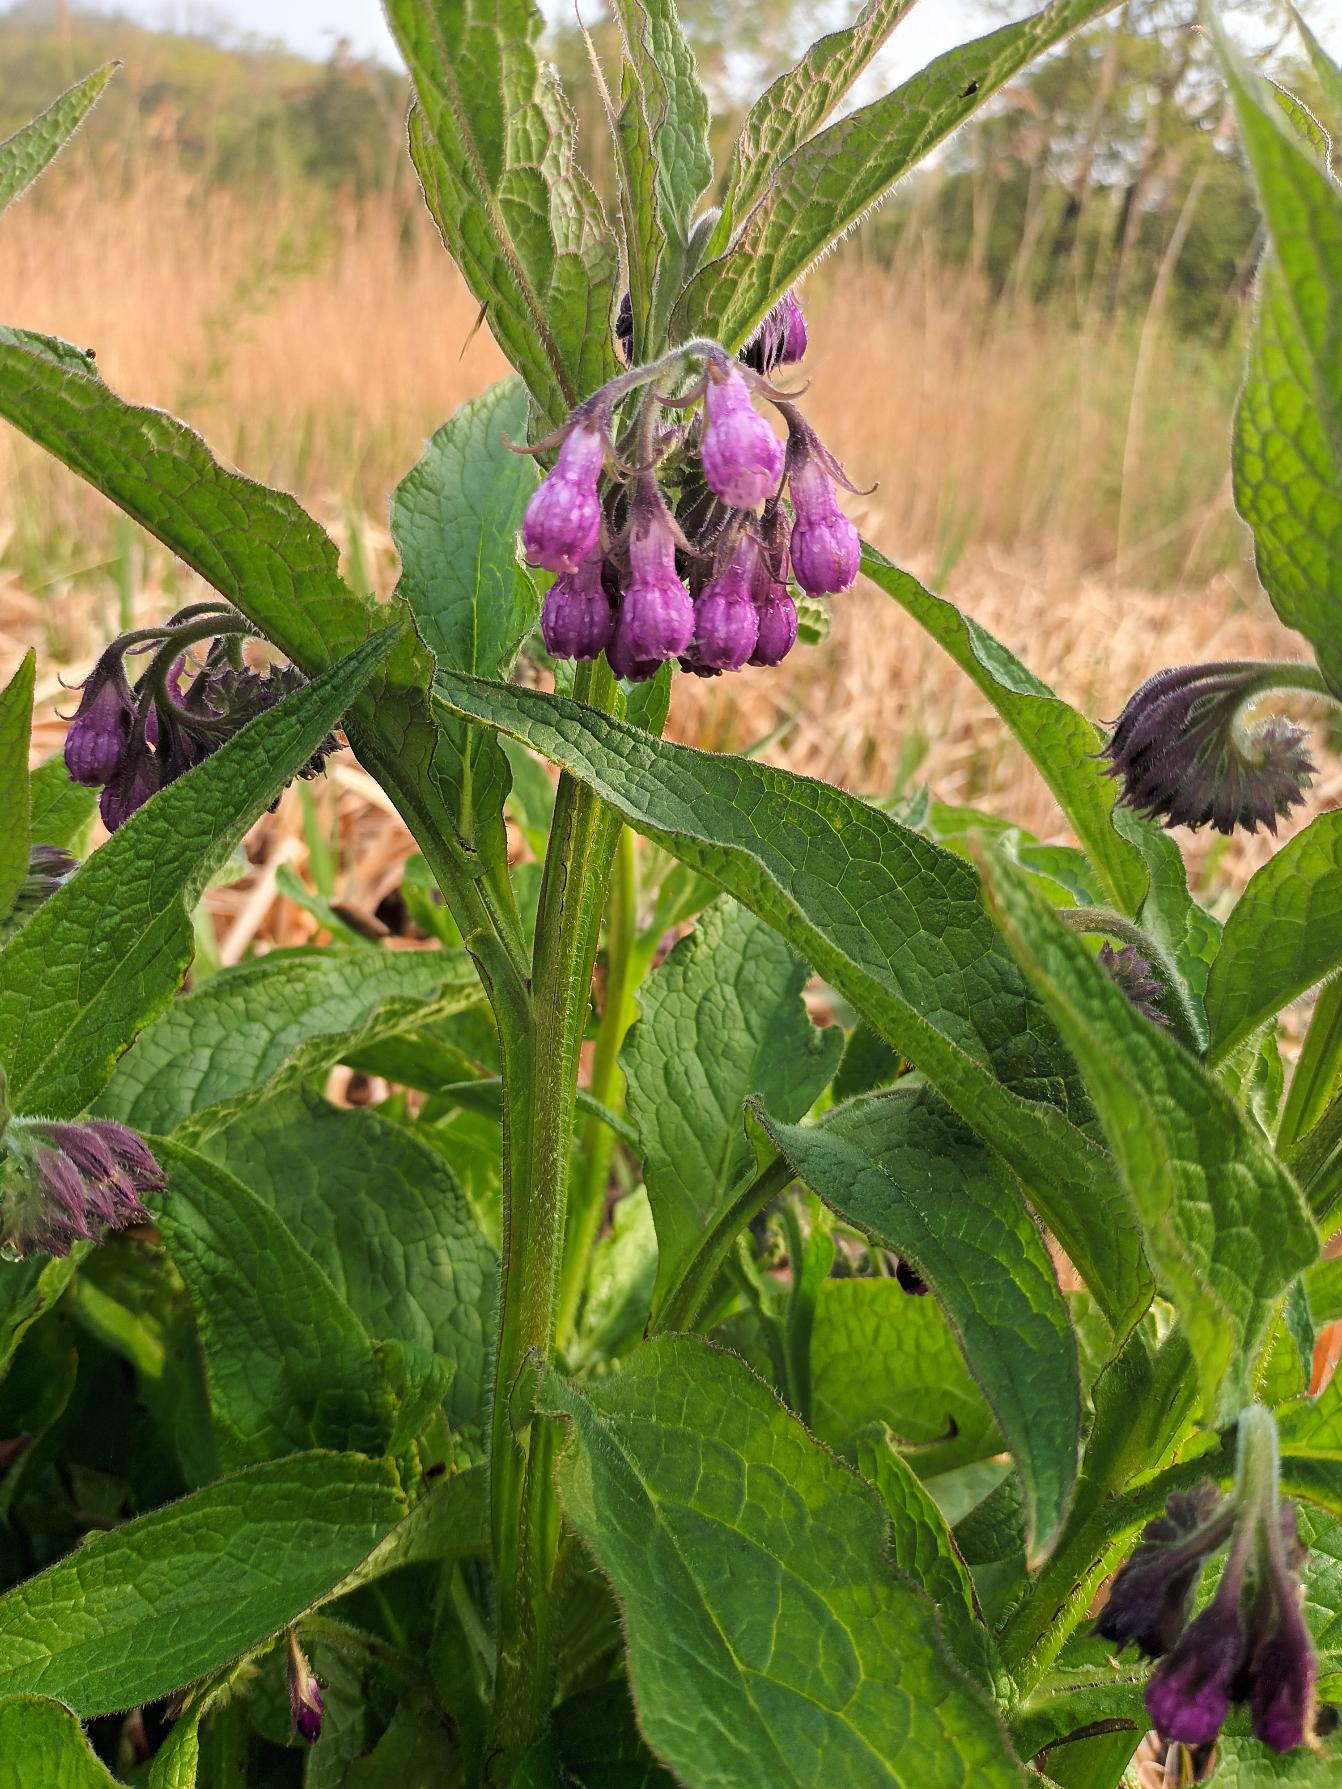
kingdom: Plantae
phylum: Tracheophyta
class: Magnoliopsida
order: Boraginales
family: Boraginaceae
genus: Symphytum
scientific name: Symphytum officinale
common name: Læge-kulsukker
